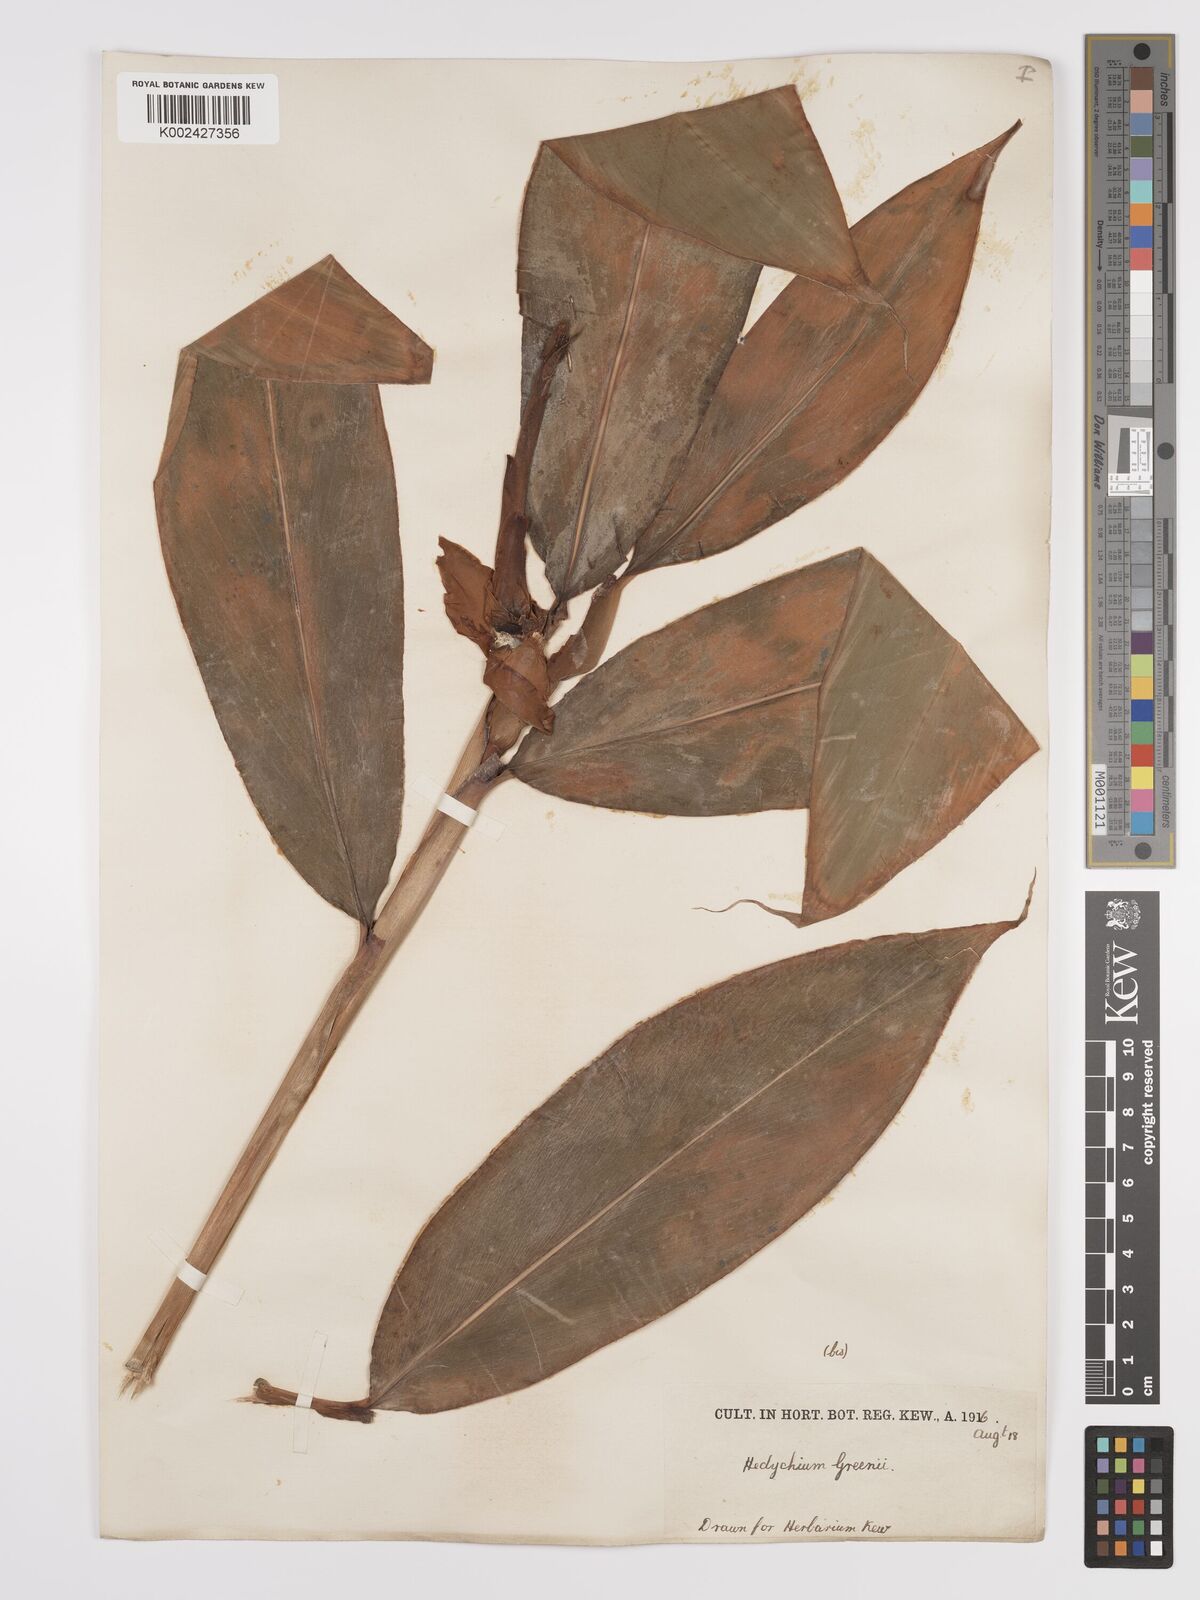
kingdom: Plantae
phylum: Tracheophyta
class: Liliopsida
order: Zingiberales
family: Zingiberaceae
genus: Hedychium
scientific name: Hedychium greenii
